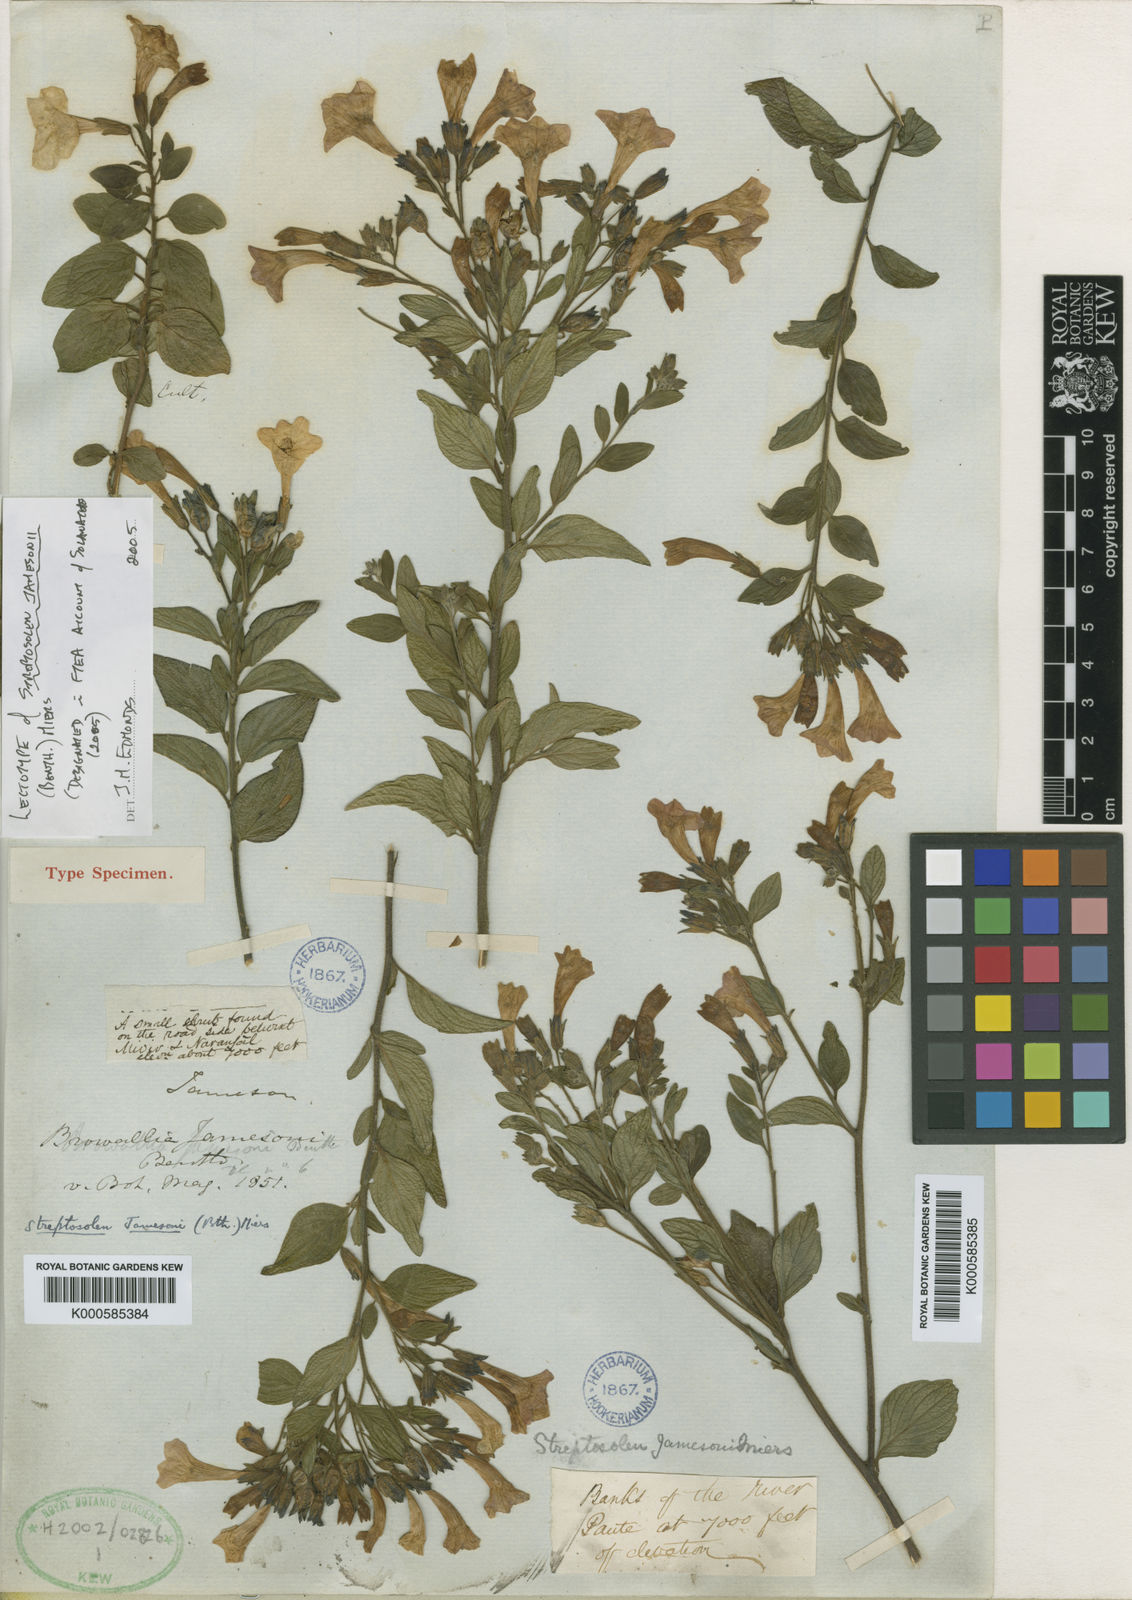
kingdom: Plantae
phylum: Tracheophyta
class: Magnoliopsida
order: Solanales
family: Solanaceae
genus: Streptosolen
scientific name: Streptosolen jamesonii
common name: Marmalade bush
